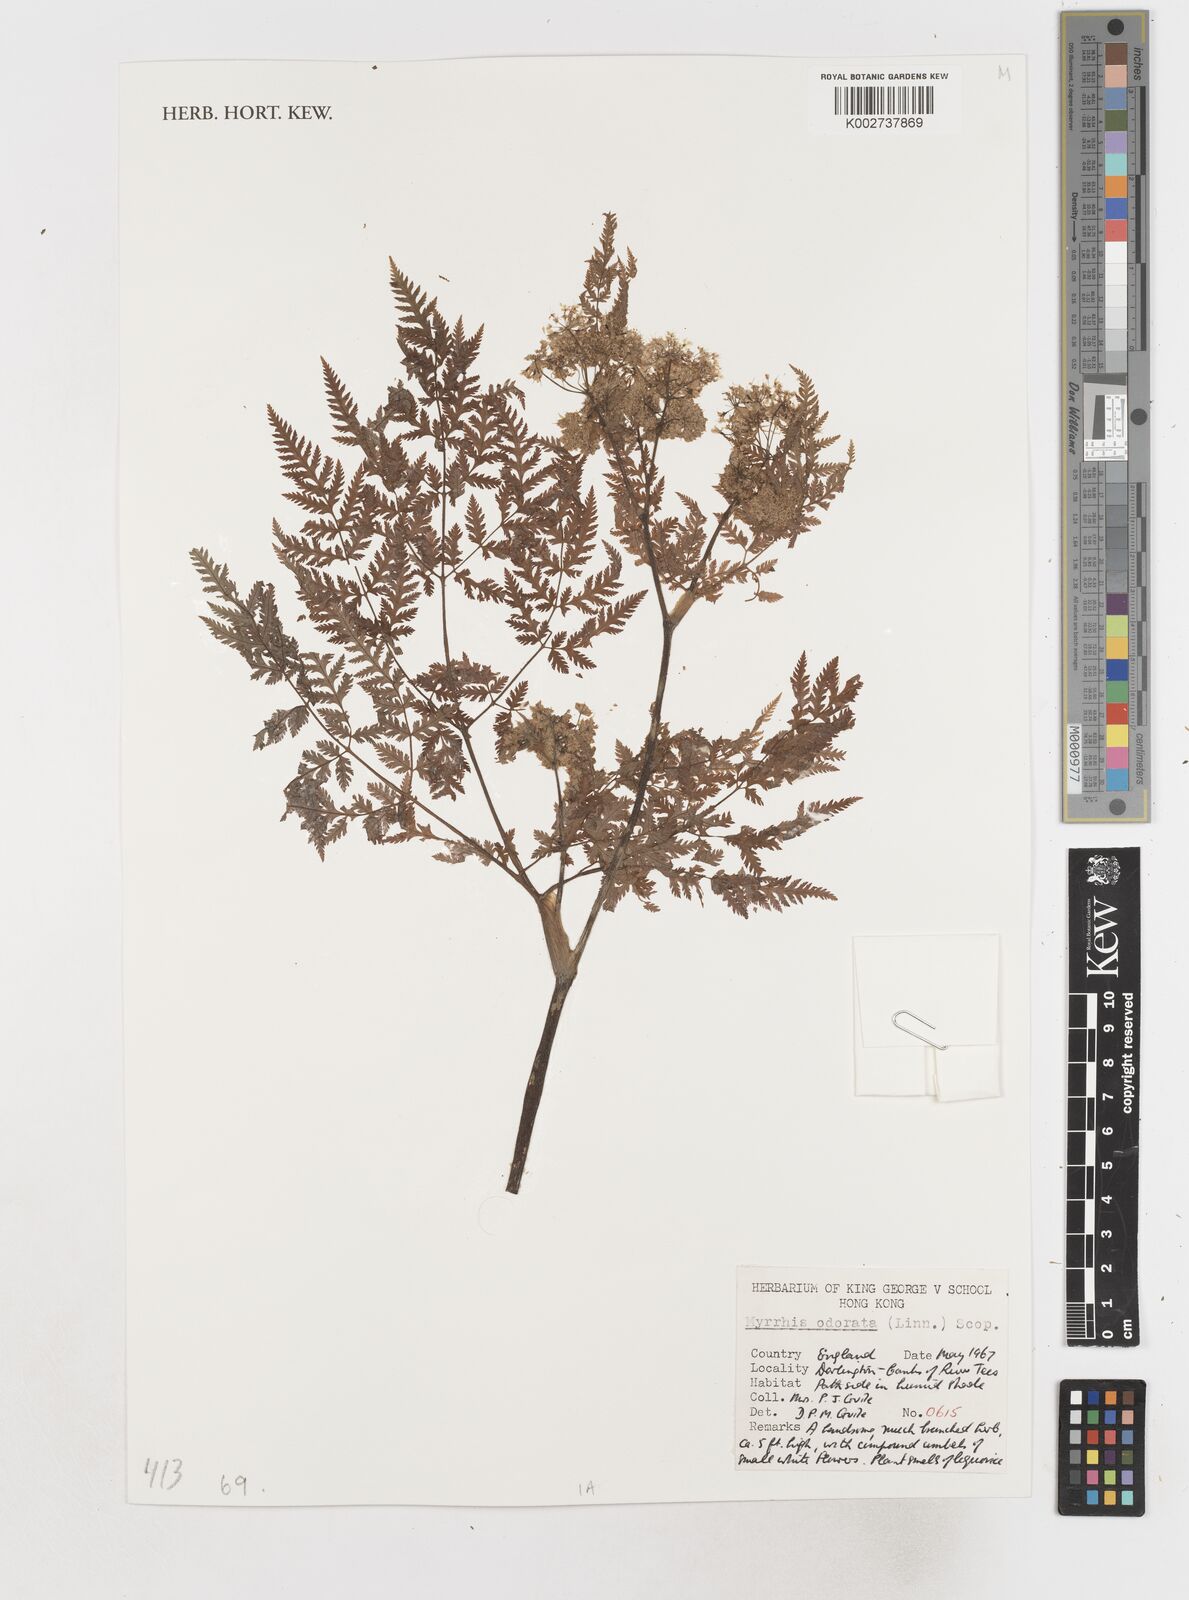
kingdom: Plantae
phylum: Tracheophyta
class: Magnoliopsida
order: Apiales
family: Apiaceae
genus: Myrrhis
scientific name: Myrrhis odorata
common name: Sweet cicely
